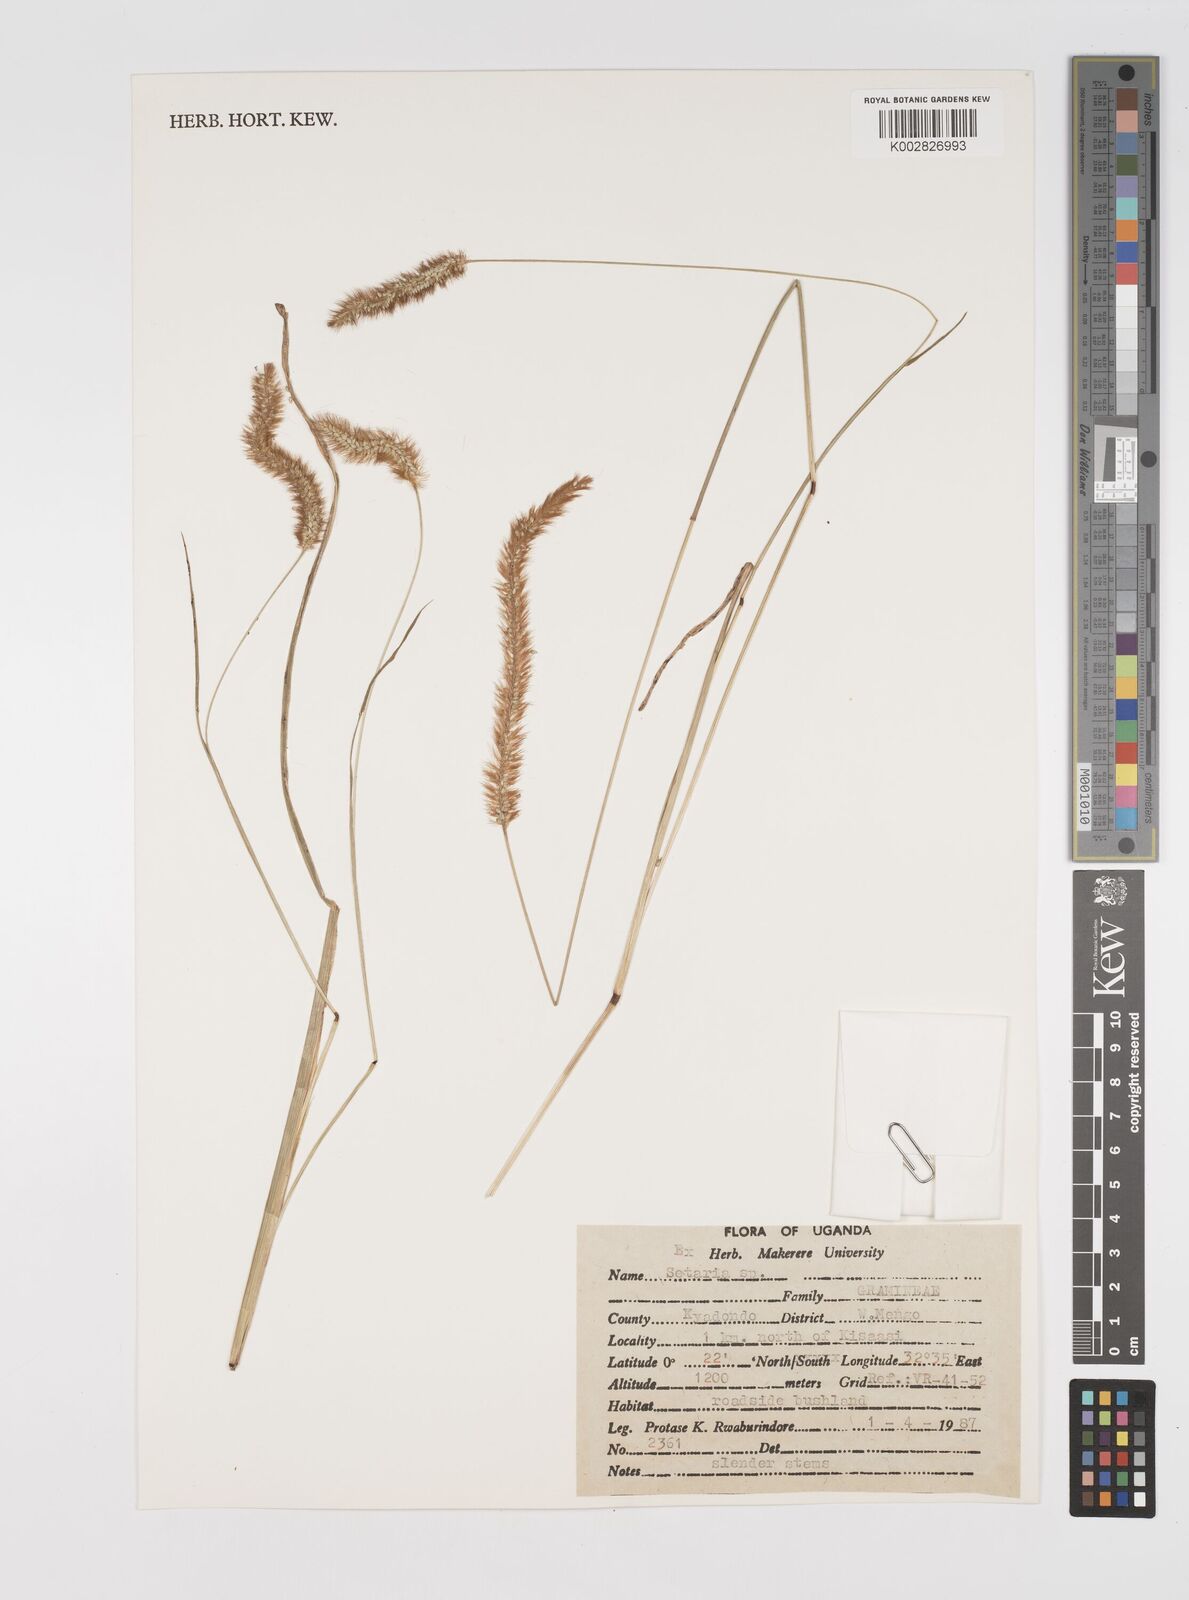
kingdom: Plantae
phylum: Tracheophyta
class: Liliopsida
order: Poales
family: Poaceae
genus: Setaria
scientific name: Setaria pumila
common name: Yellow bristle-grass
